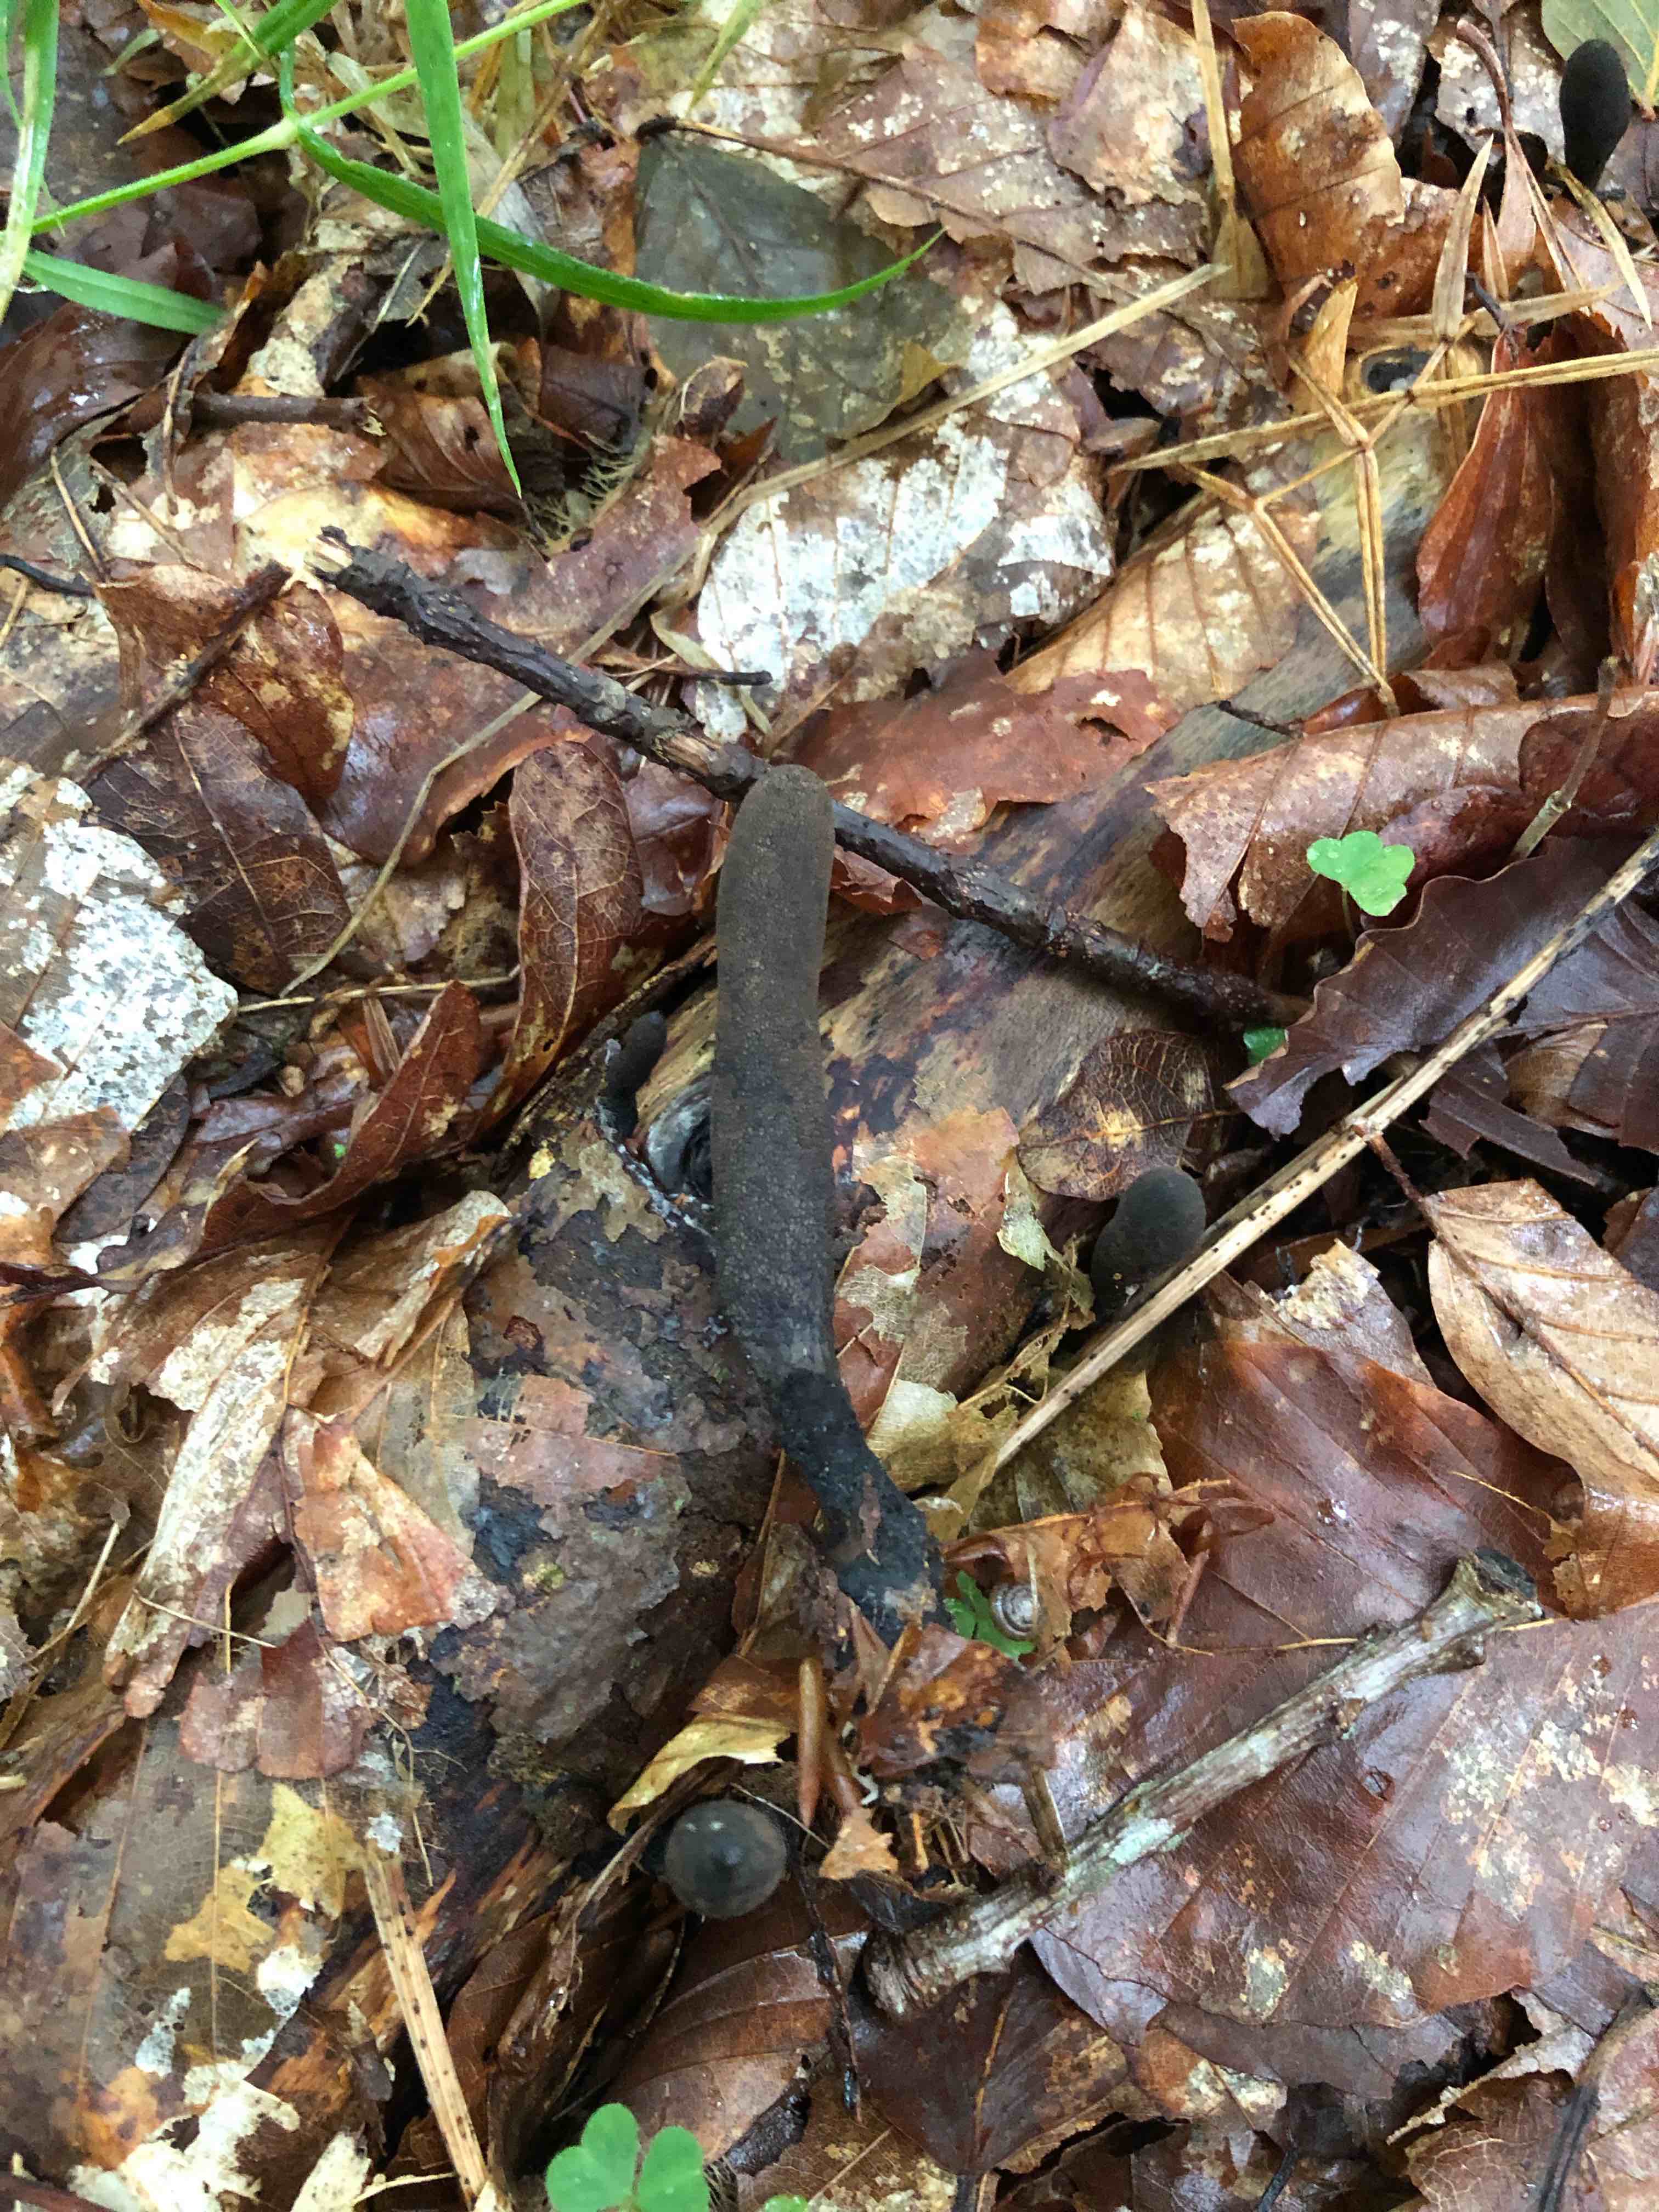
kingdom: Fungi
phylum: Ascomycota
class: Sordariomycetes
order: Xylariales
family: Xylariaceae
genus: Xylaria
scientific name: Xylaria longipes
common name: slank stødsvamp
